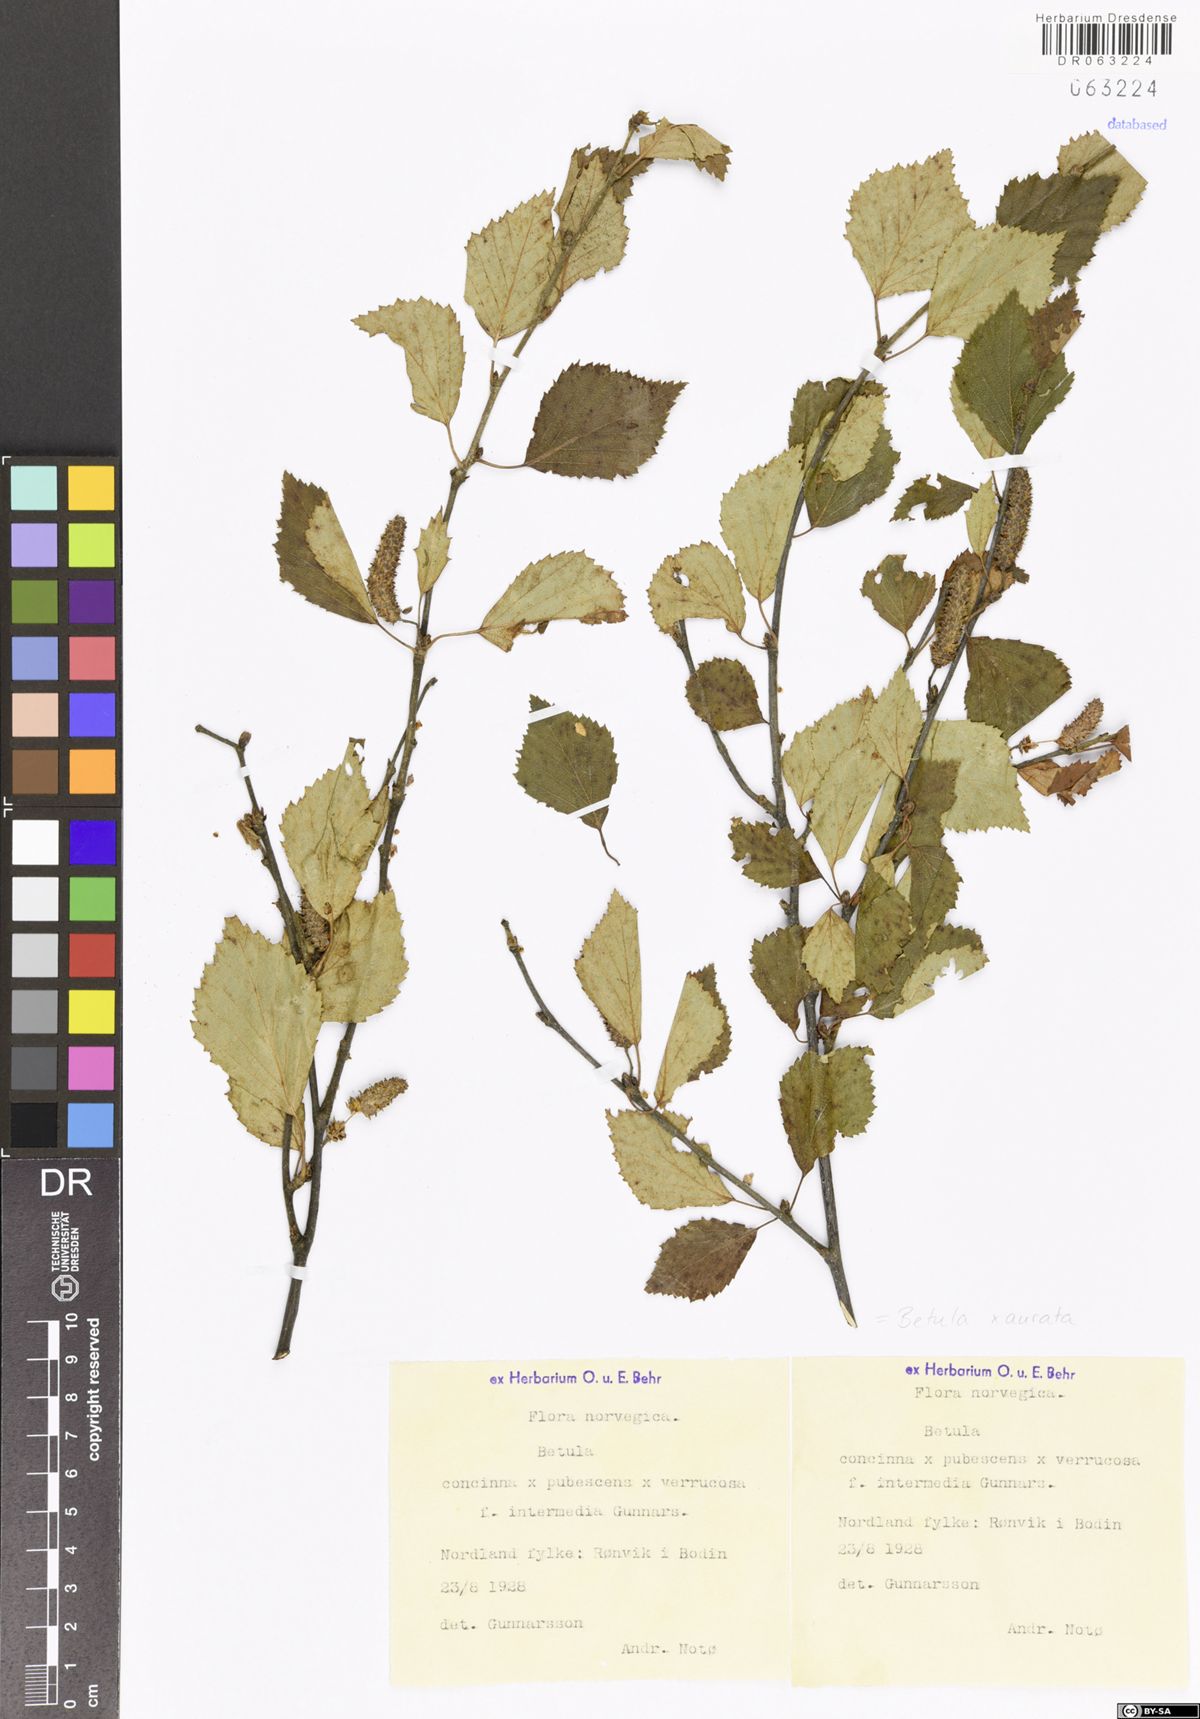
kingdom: Plantae
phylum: Tracheophyta
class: Magnoliopsida
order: Fagales
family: Betulaceae
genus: Betula
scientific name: Betula aurata
